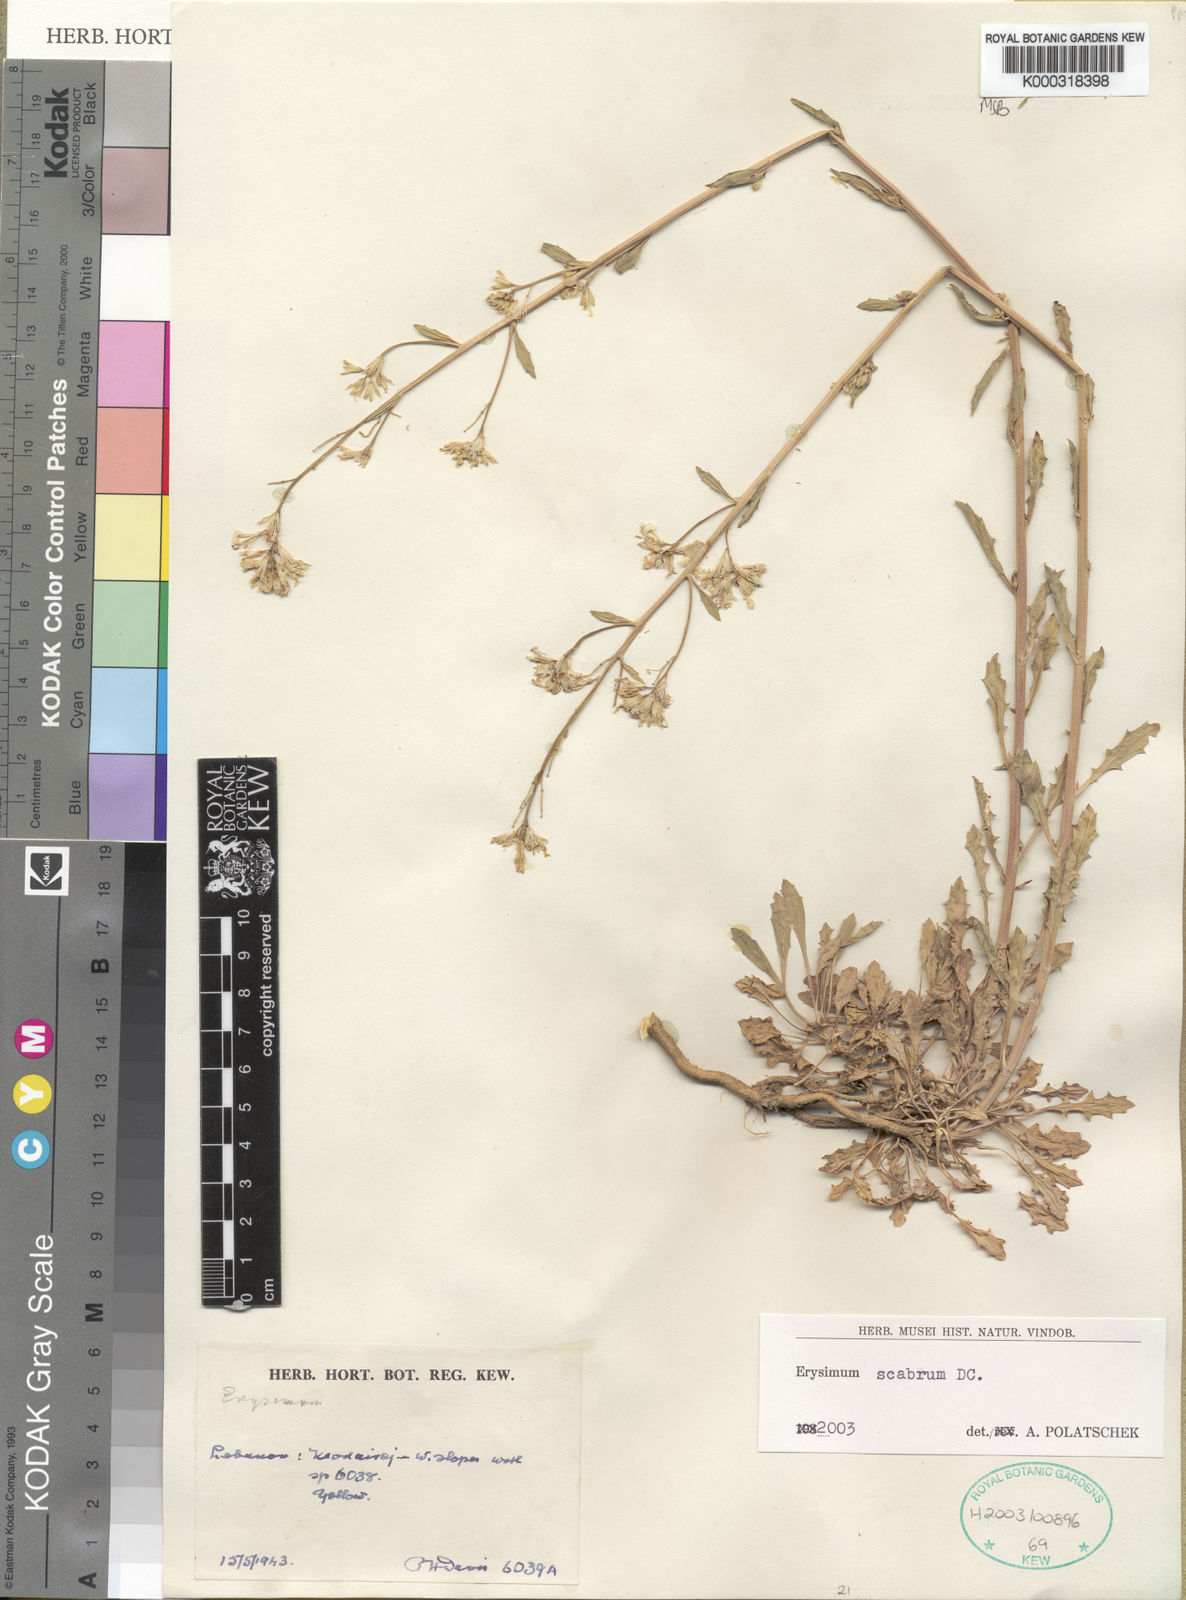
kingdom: Plantae
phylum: Tracheophyta
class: Magnoliopsida
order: Brassicales
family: Brassicaceae
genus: Erysimum
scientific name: Erysimum scabrum
